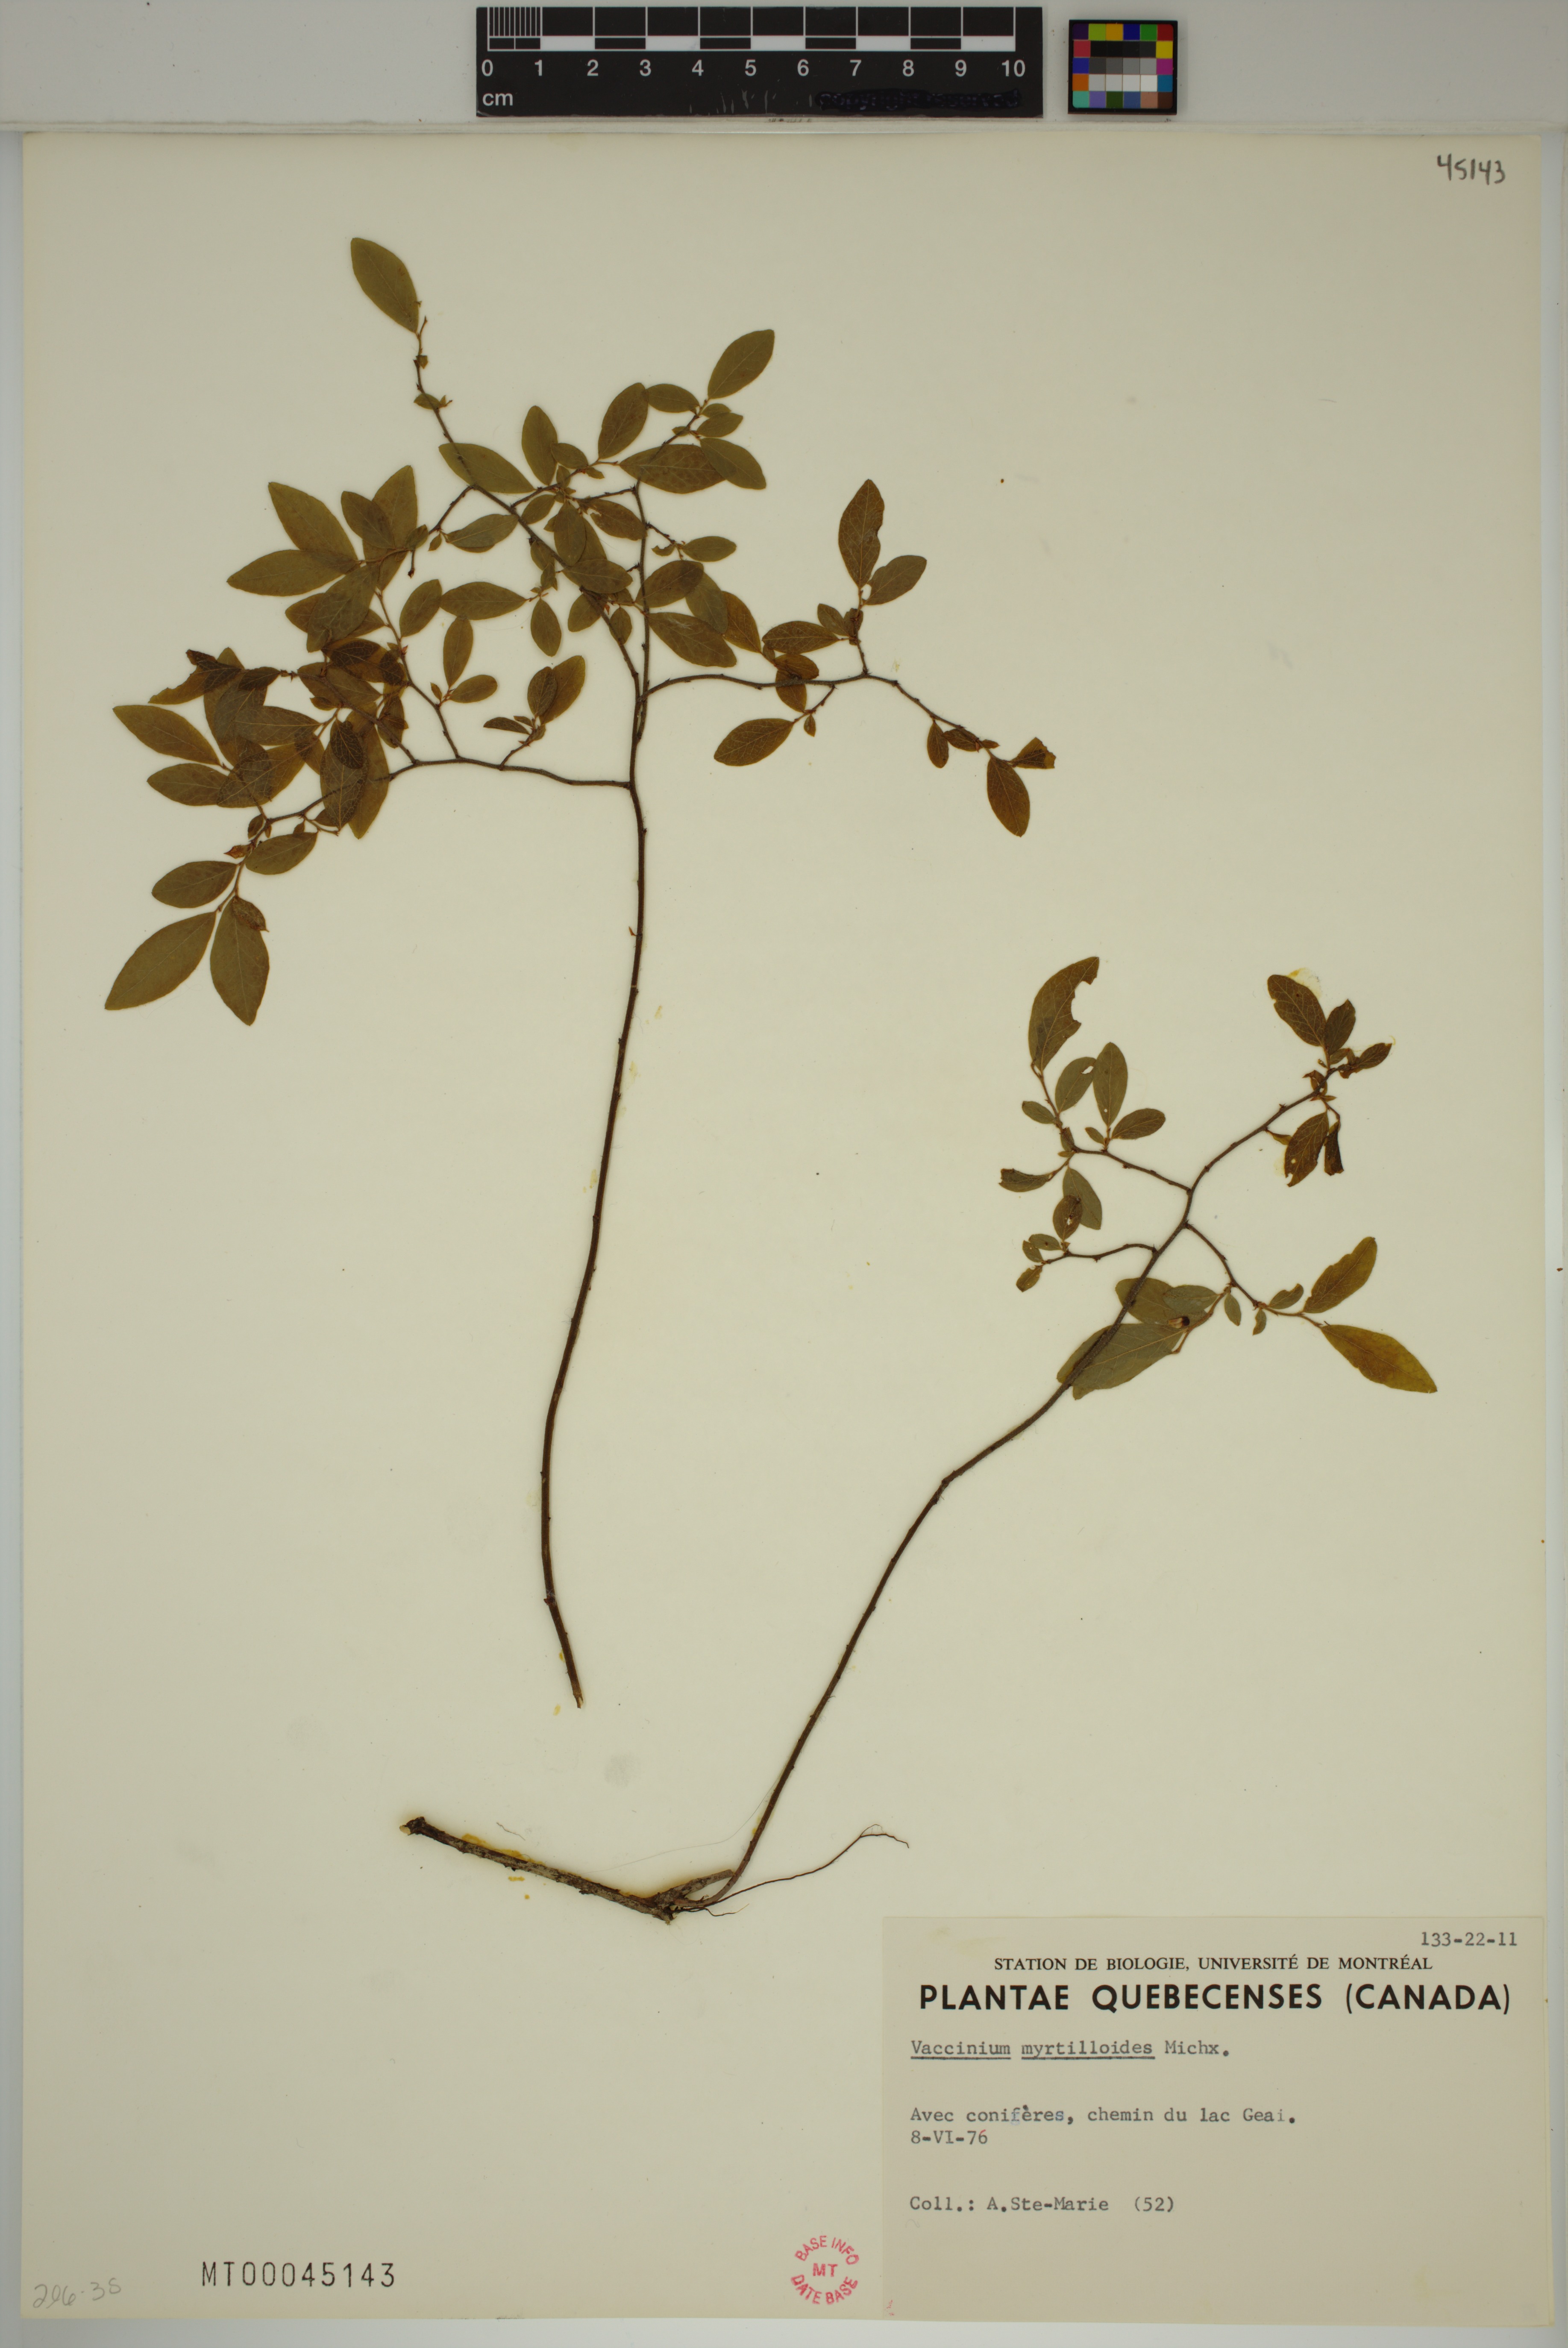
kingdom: Plantae
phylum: Tracheophyta
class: Magnoliopsida
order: Ericales
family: Ericaceae
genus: Vaccinium
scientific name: Vaccinium myrtilloides
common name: Canada blueberry
